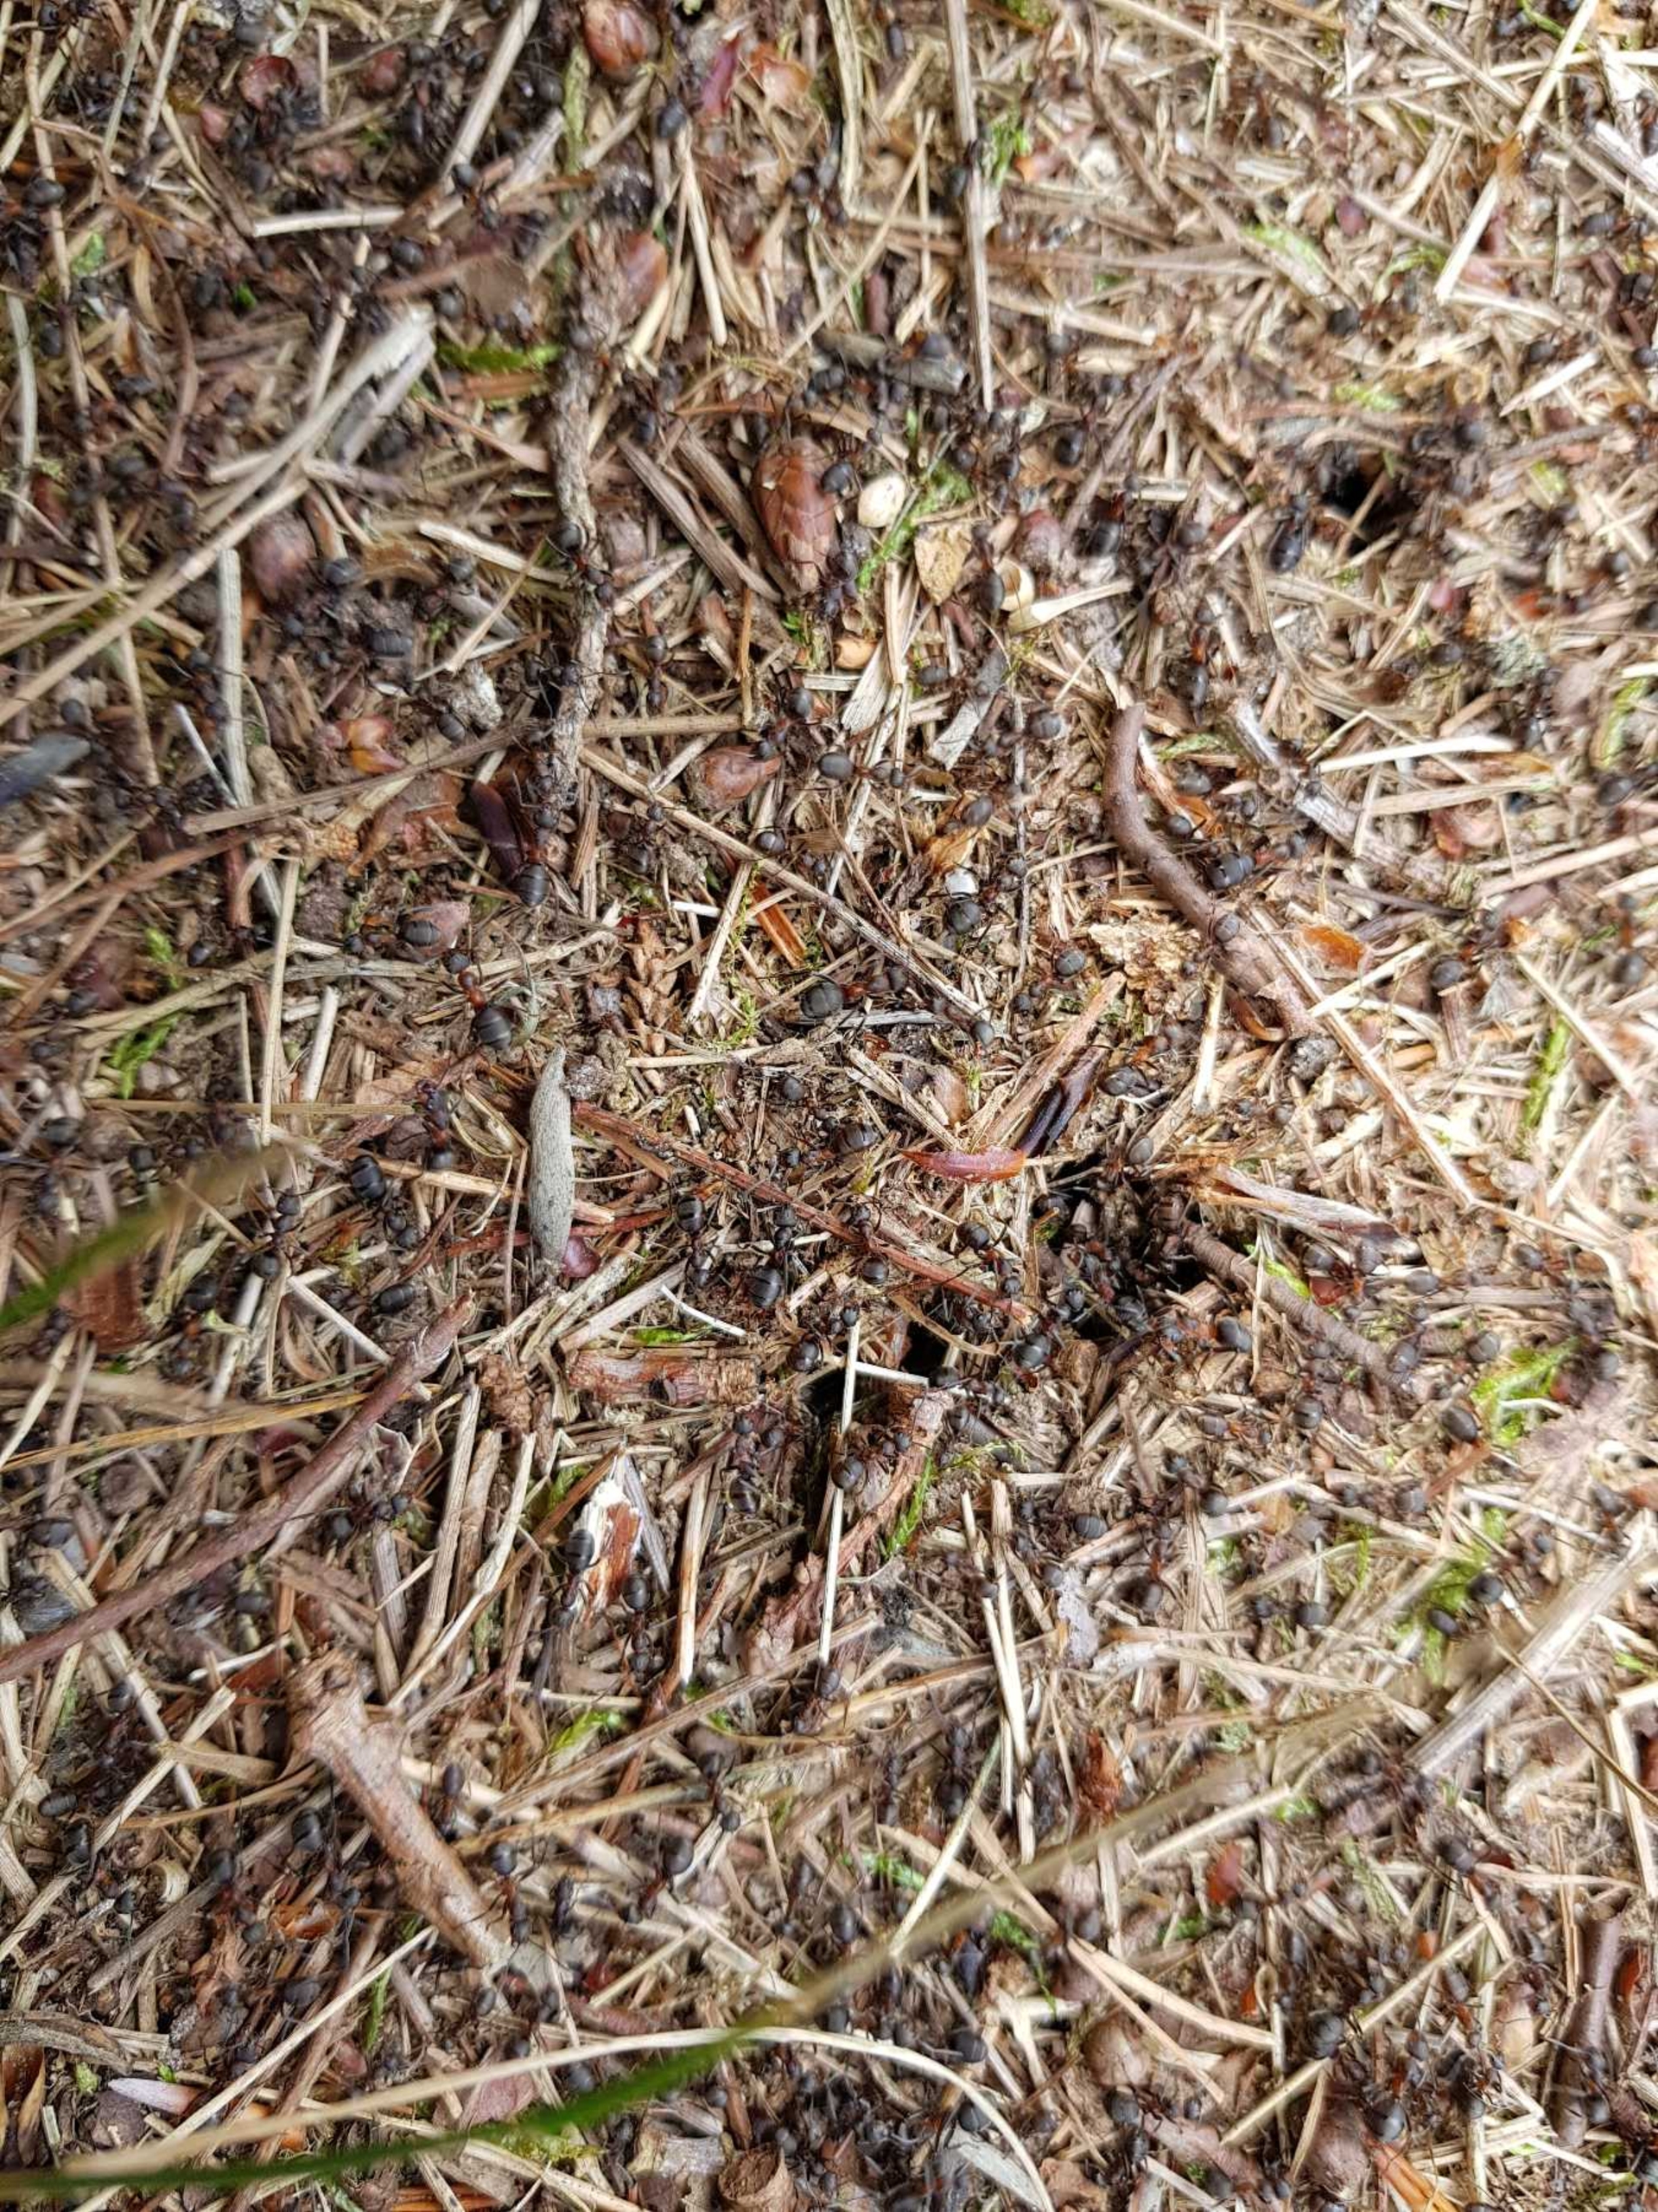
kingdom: Animalia
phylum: Arthropoda
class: Insecta
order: Hymenoptera
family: Formicidae
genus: Formica
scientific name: Formica
